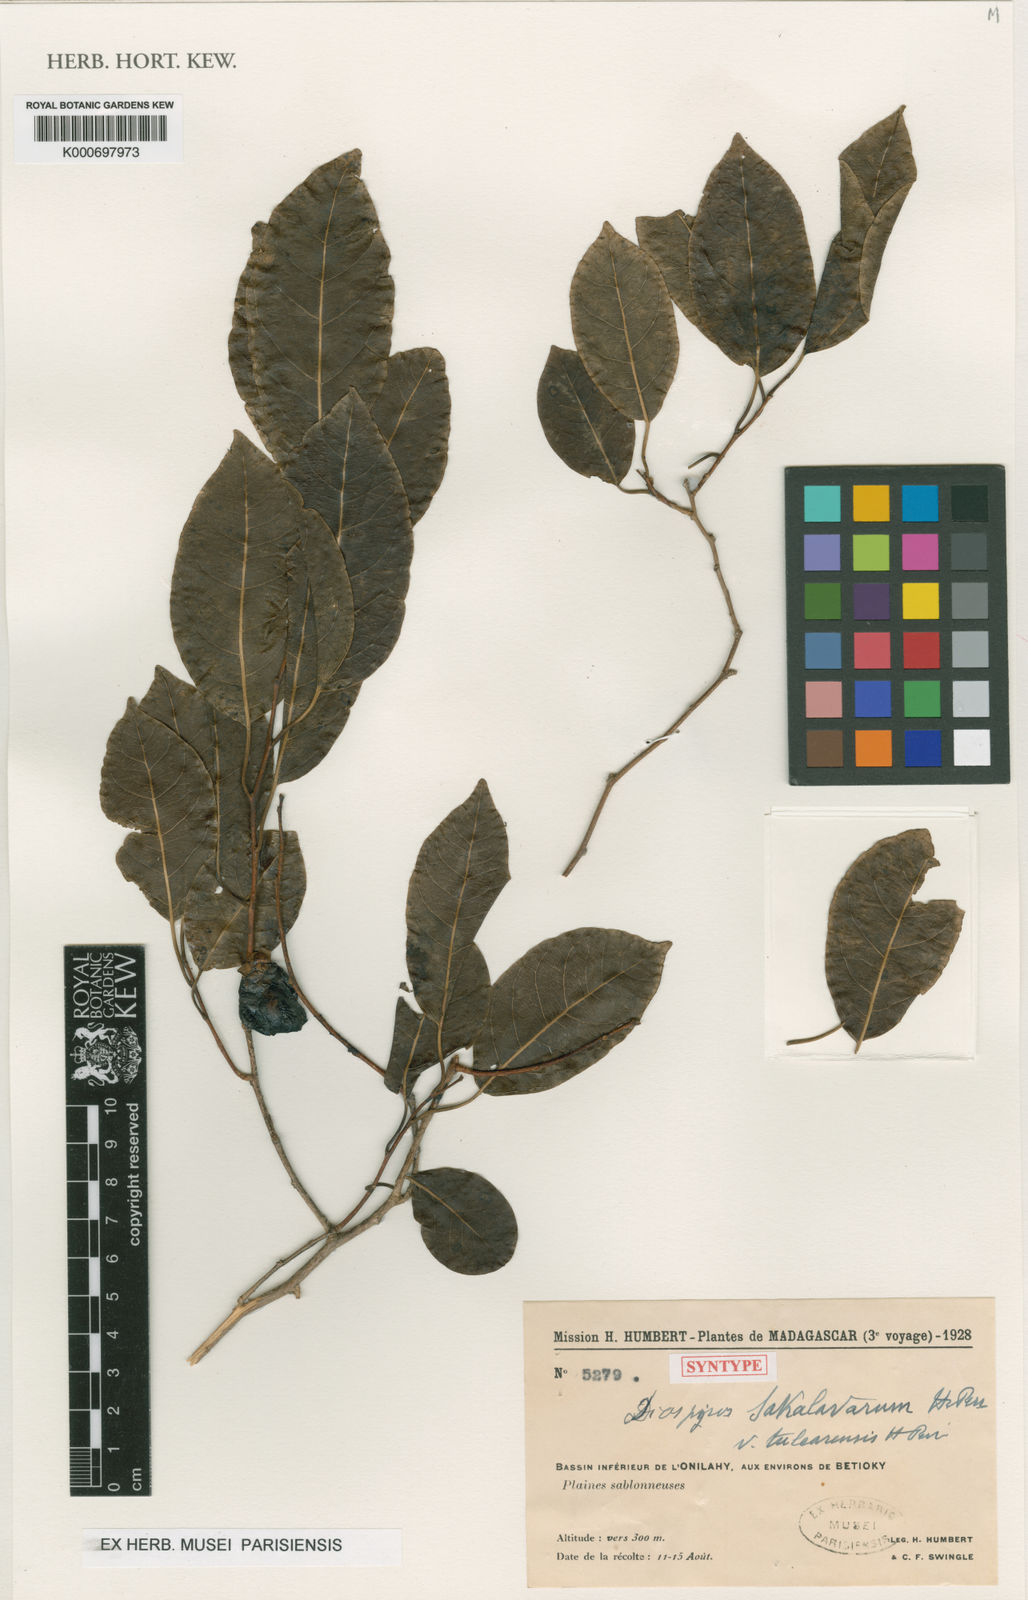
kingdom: Plantae
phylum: Tracheophyta
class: Magnoliopsida
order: Ericales
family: Ebenaceae
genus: Diospyros
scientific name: Diospyros sakalavarum
